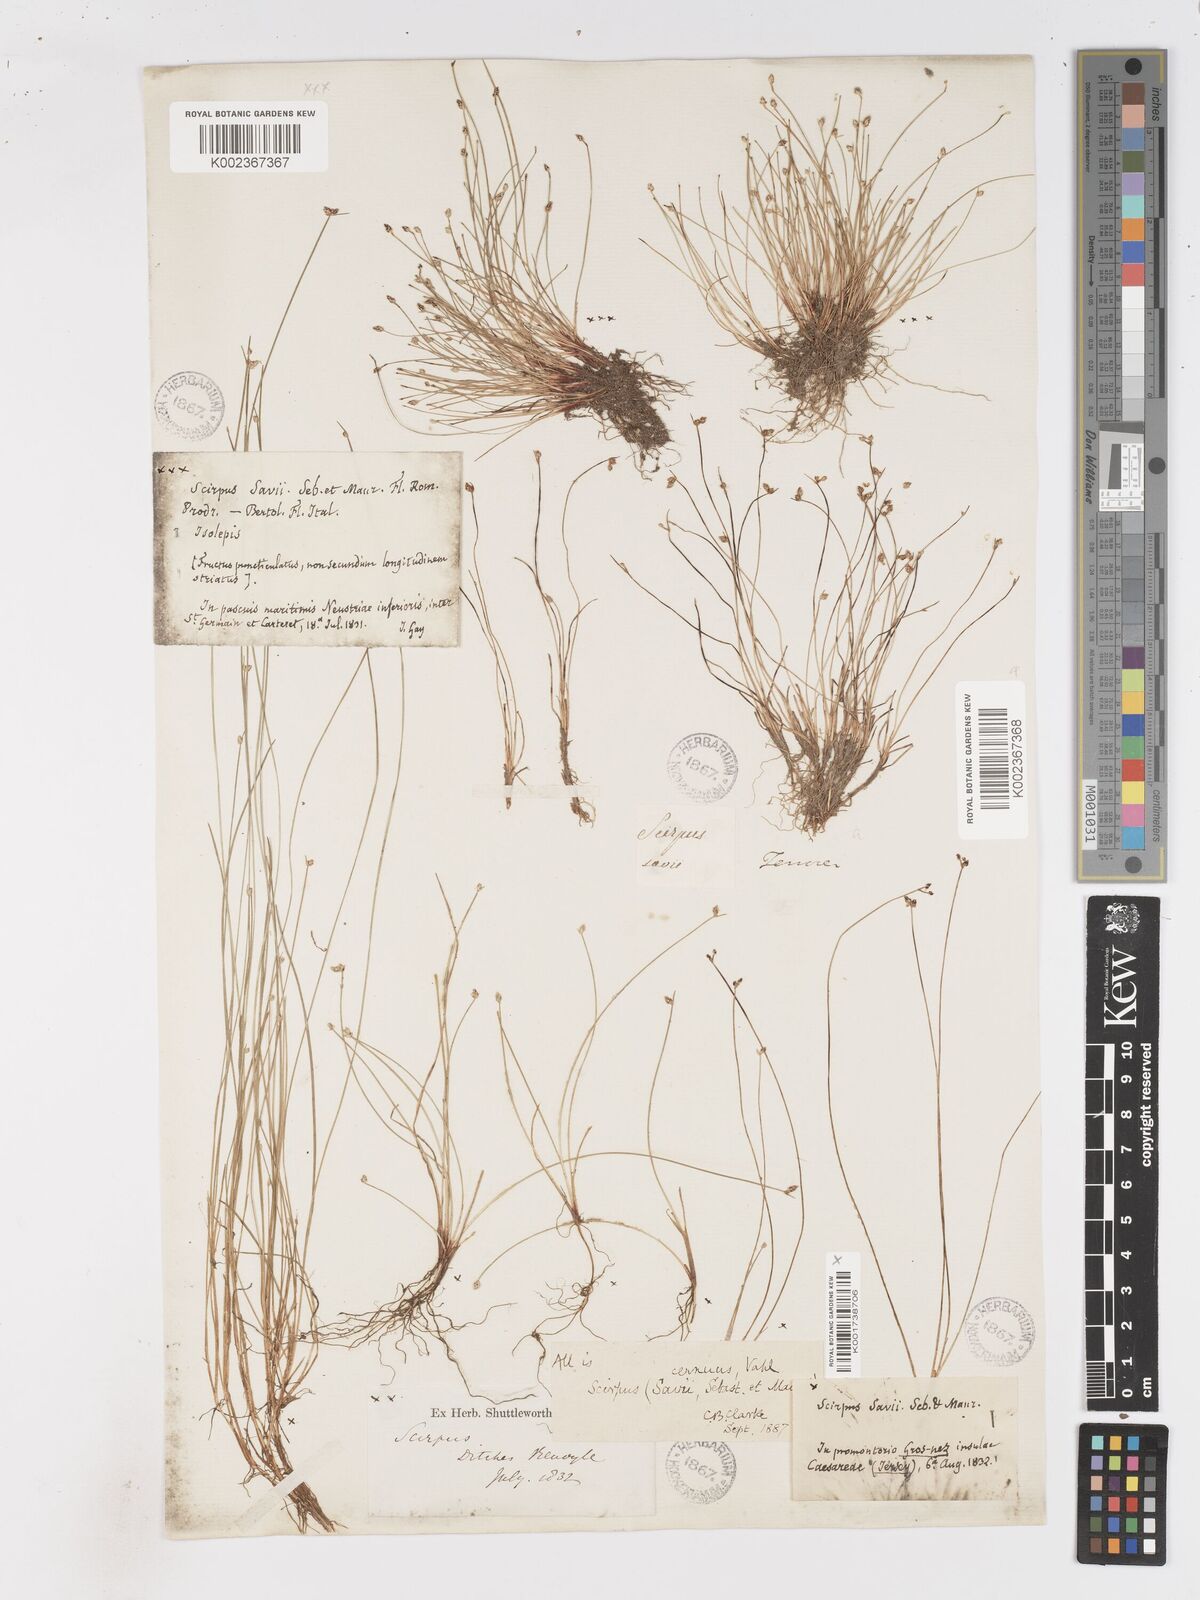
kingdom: Plantae
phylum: Tracheophyta
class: Liliopsida
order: Poales
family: Cyperaceae
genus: Isolepis
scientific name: Isolepis cernua
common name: Slender club-rush
